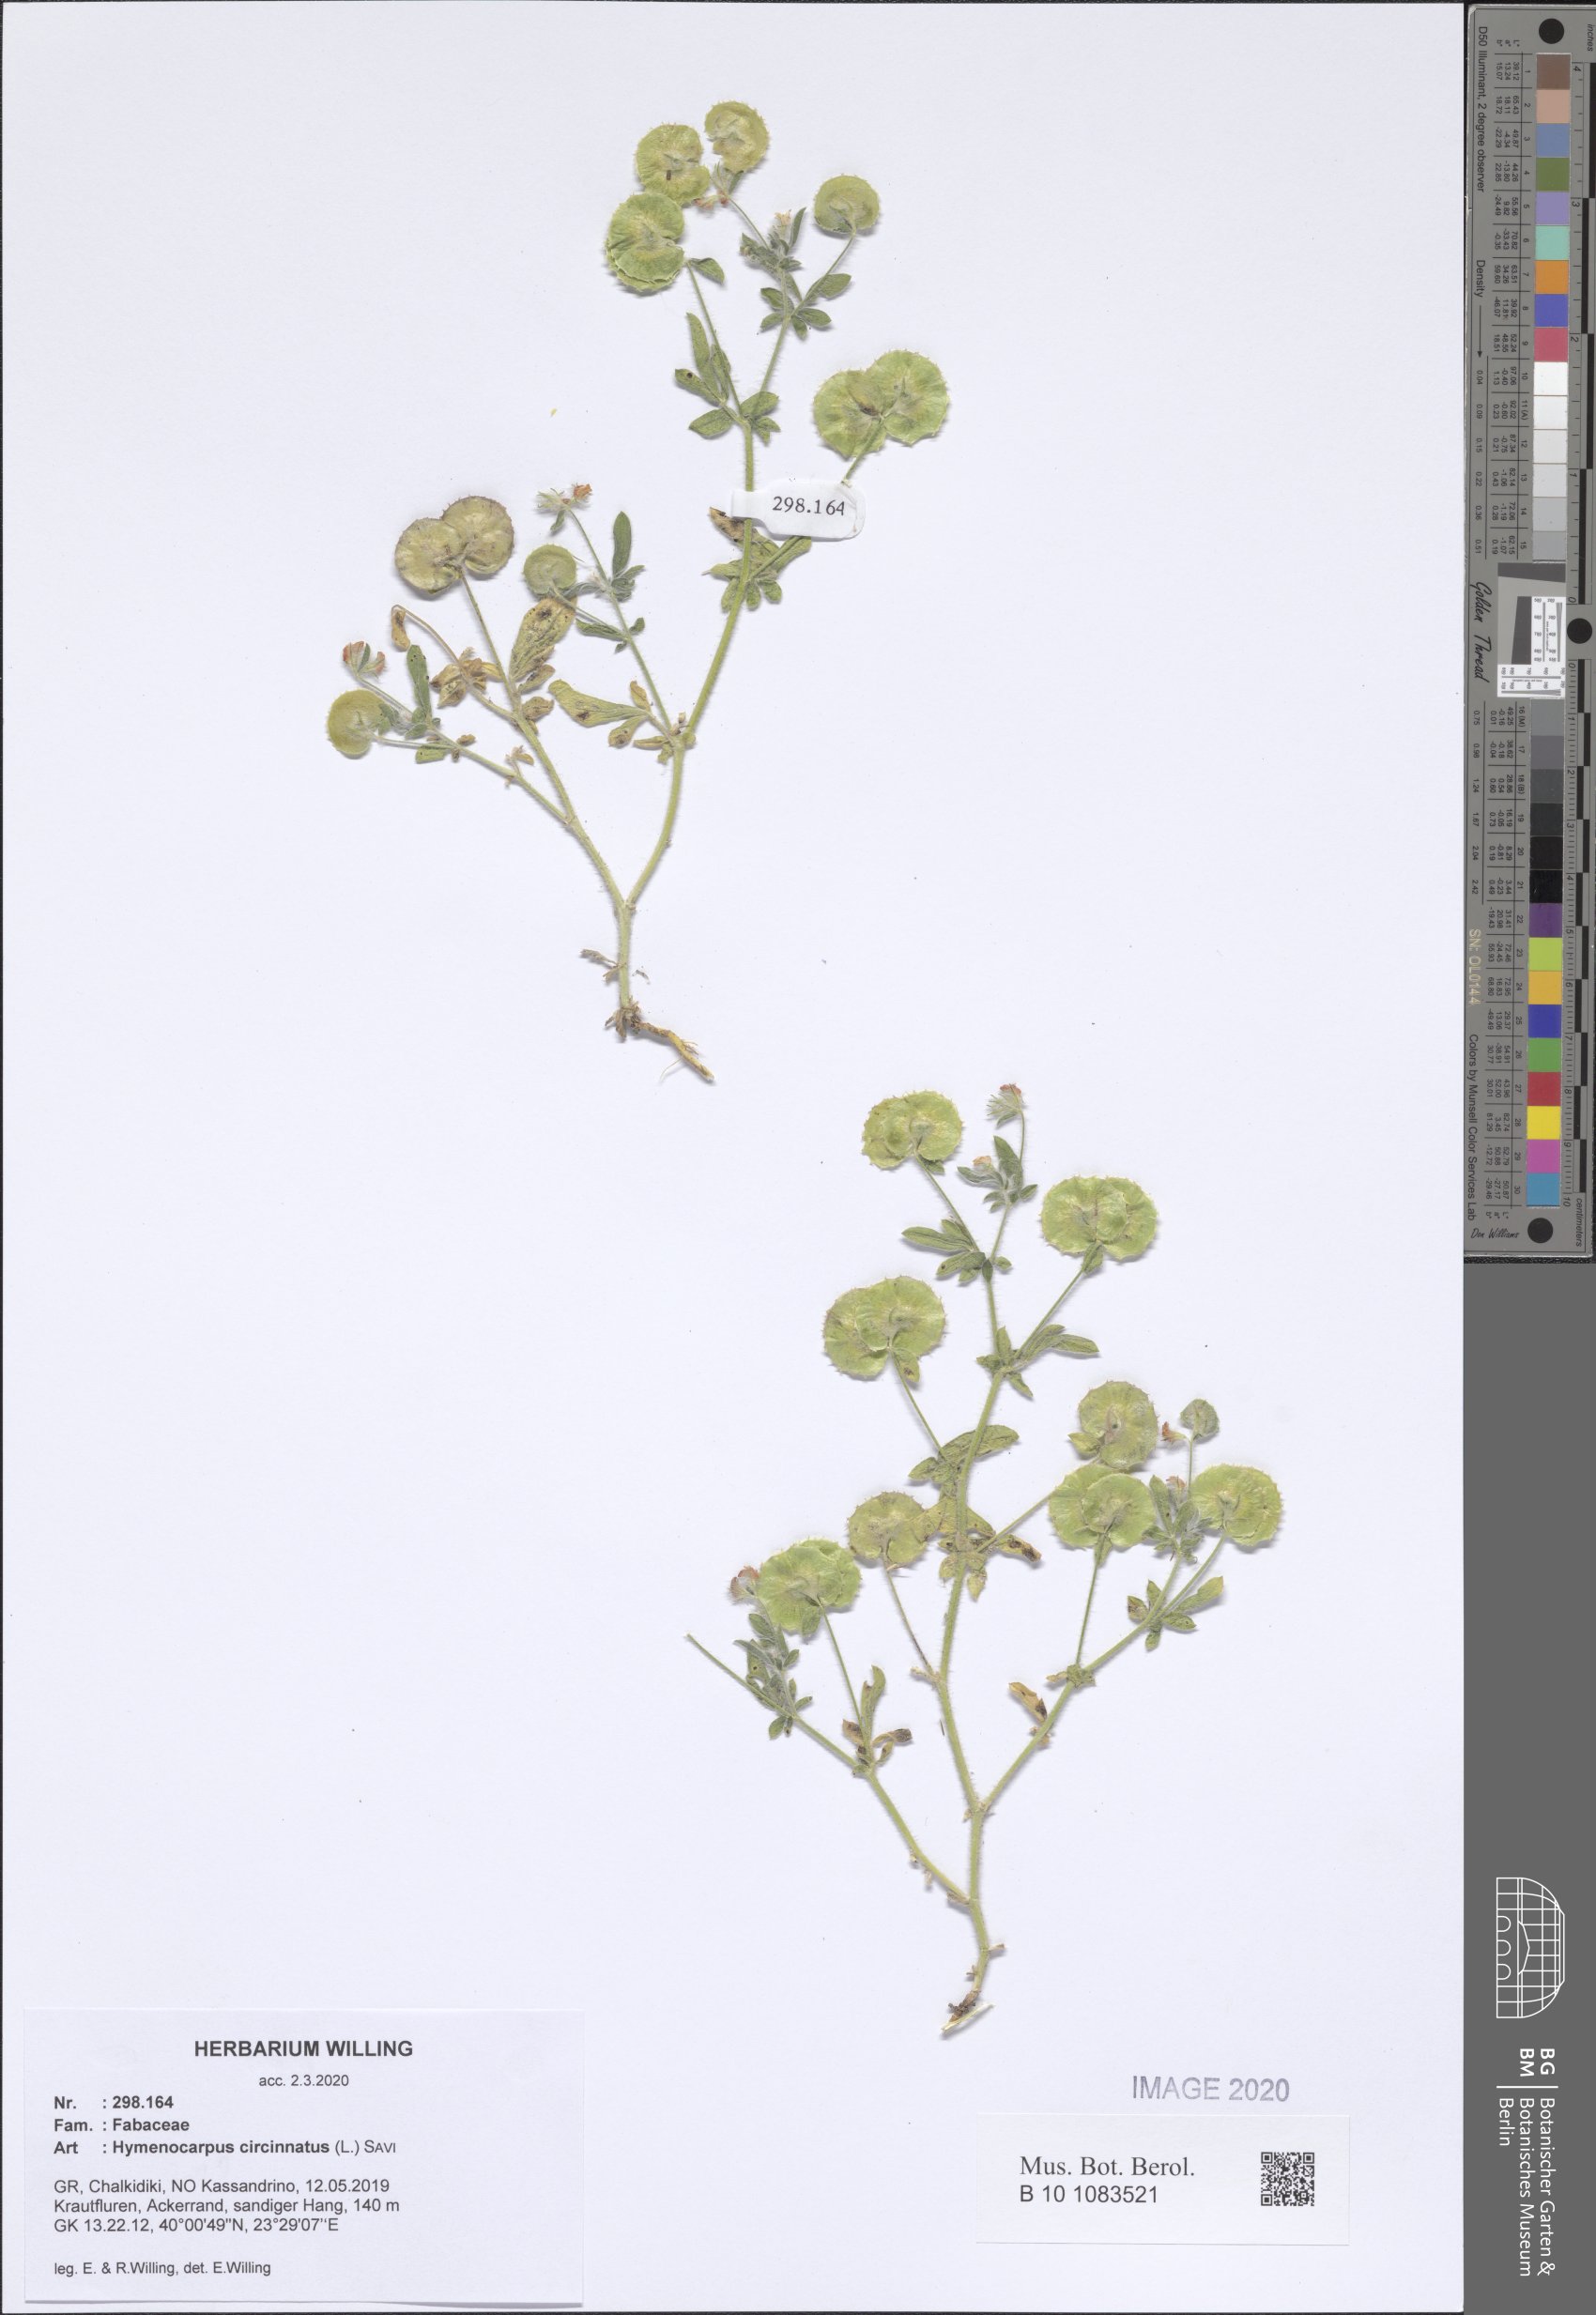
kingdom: Plantae
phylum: Tracheophyta
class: Magnoliopsida
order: Fabales
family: Fabaceae
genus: Anthyllis
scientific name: Anthyllis circinnata
